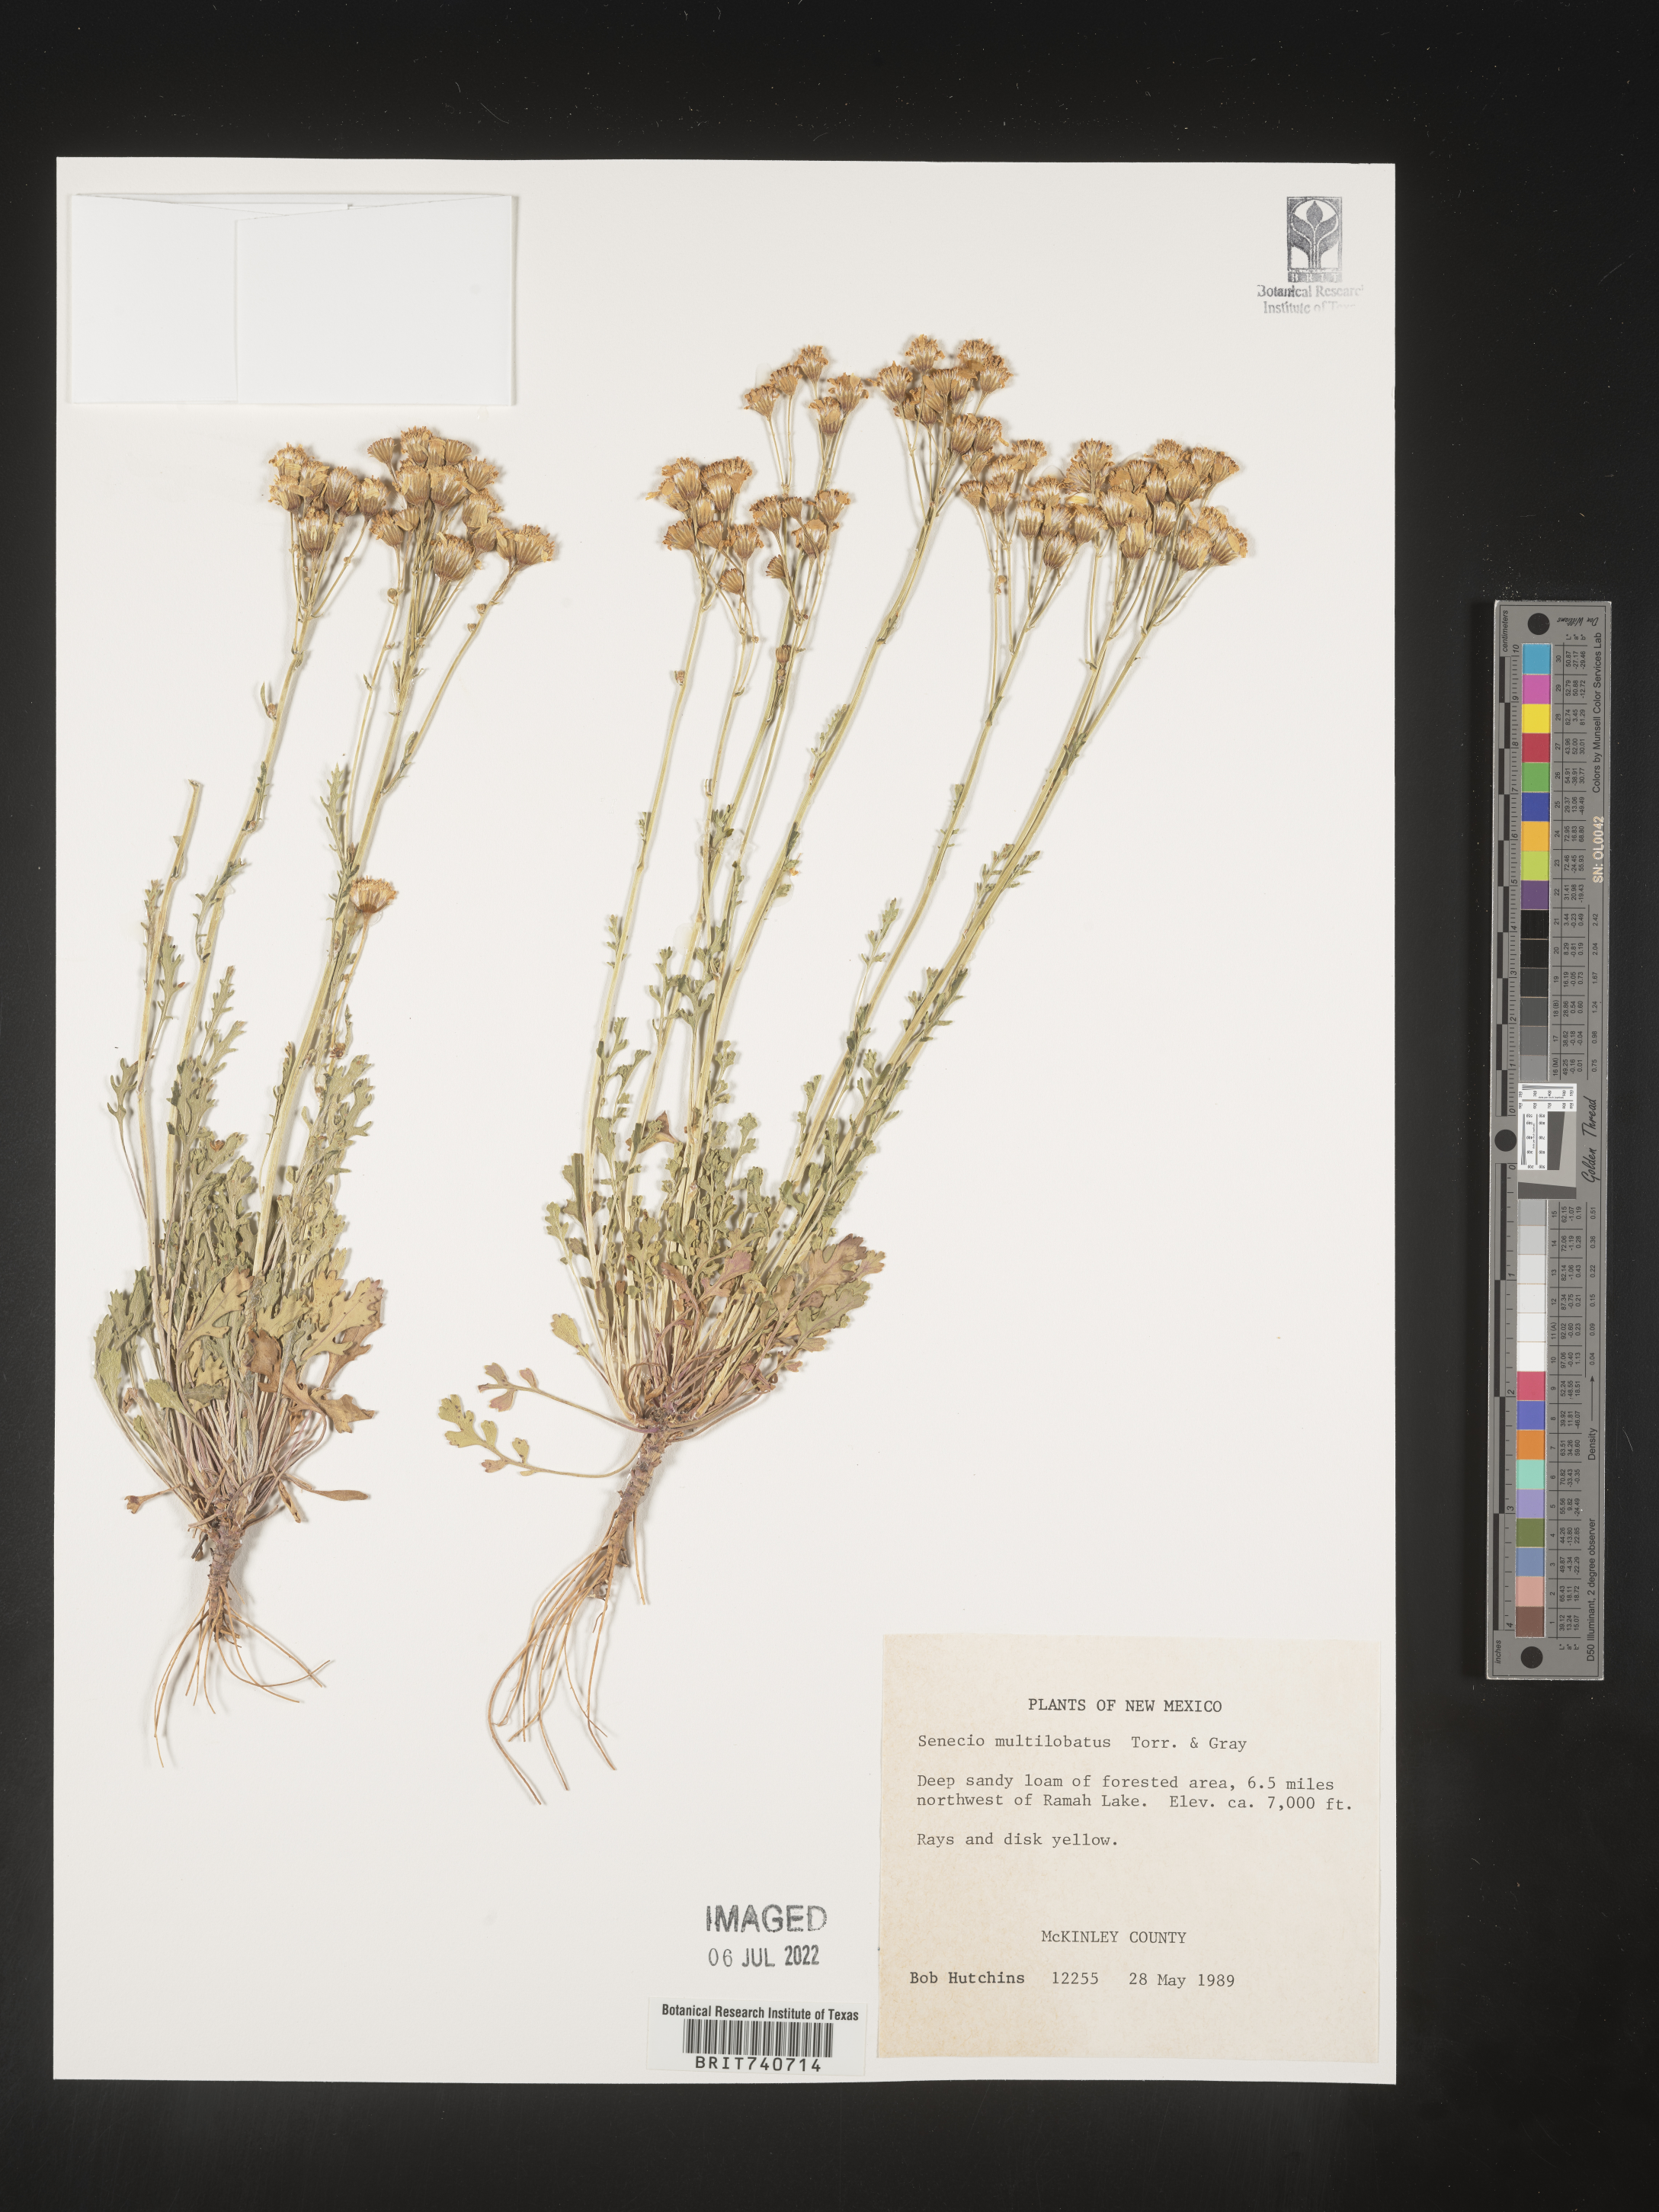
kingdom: Plantae
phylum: Tracheophyta
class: Magnoliopsida
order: Asterales
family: Asteraceae
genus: Packera
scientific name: Packera multilobata
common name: Lobe-leaf groundsel
